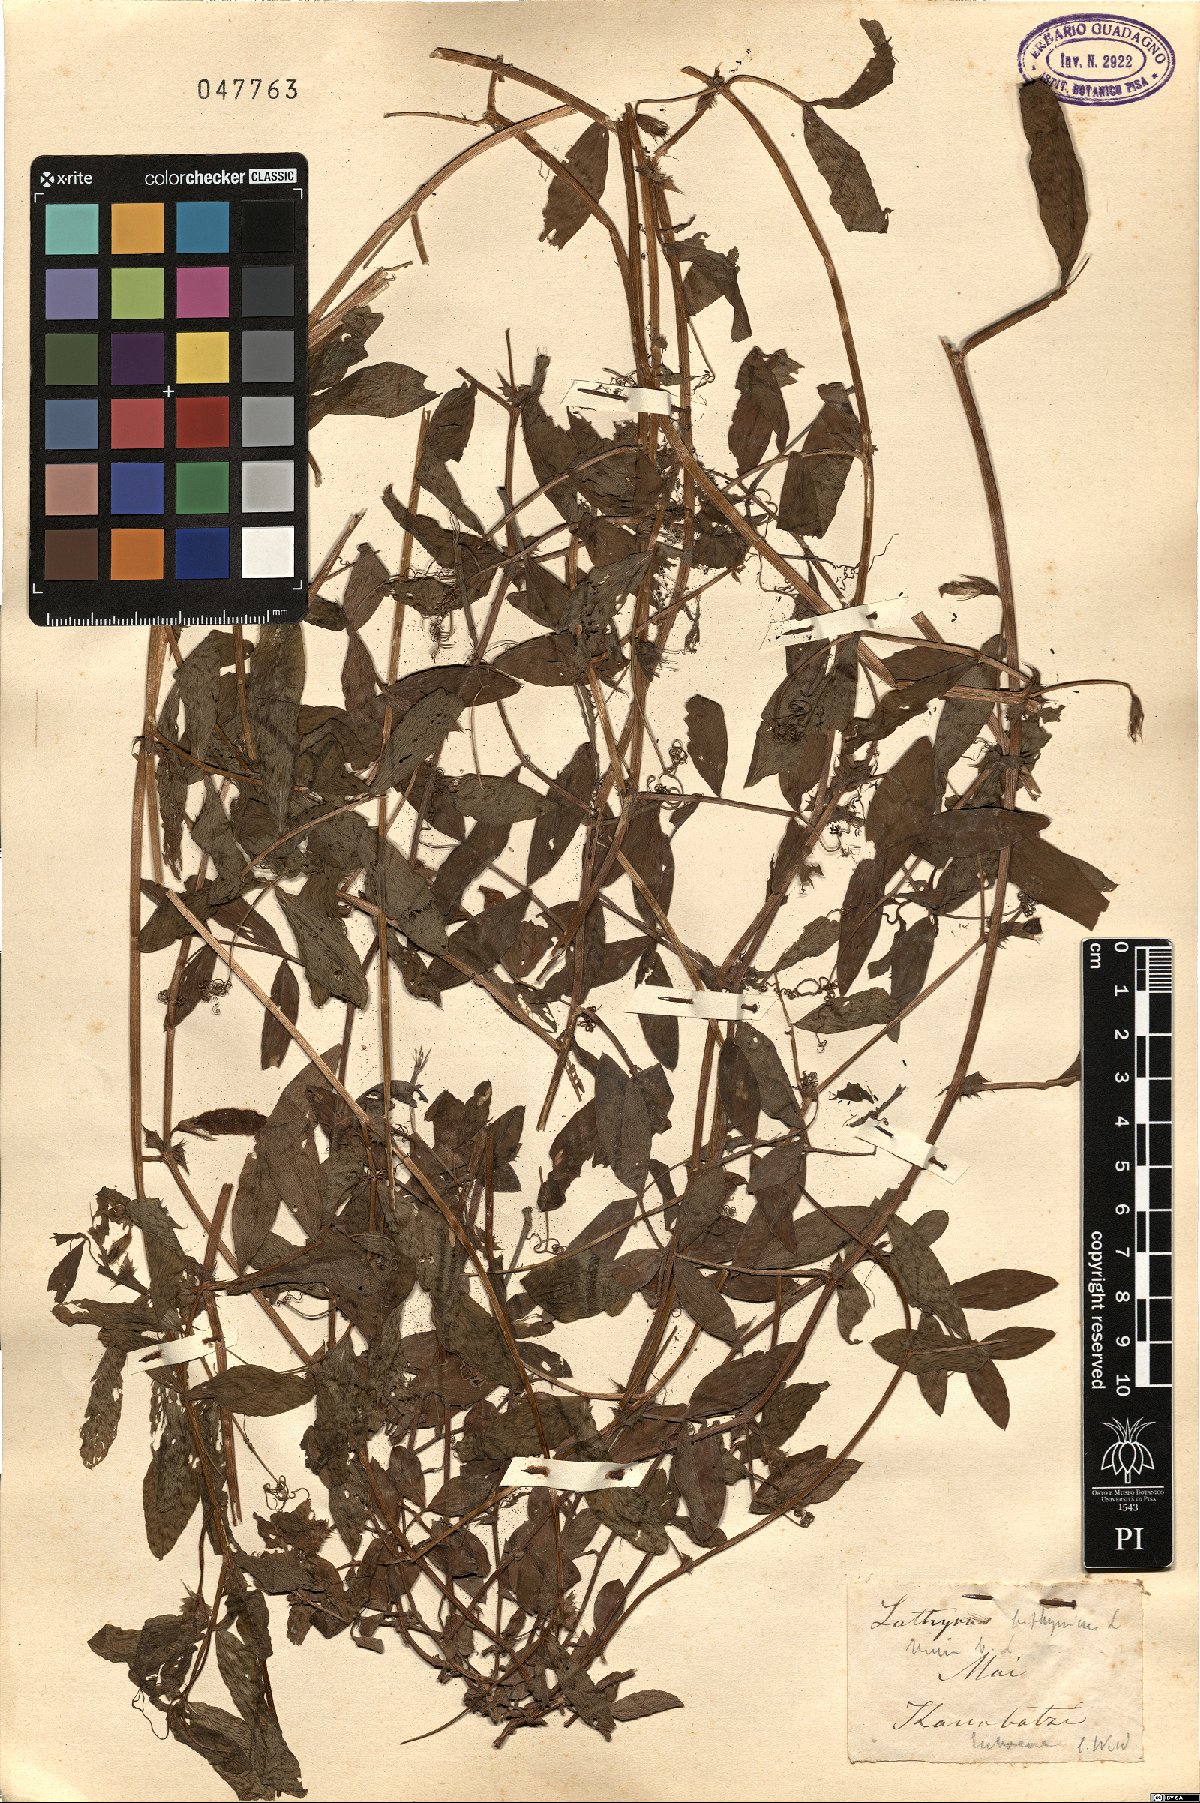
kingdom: Plantae
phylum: Tracheophyta
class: Magnoliopsida
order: Fabales
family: Fabaceae
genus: Vicia
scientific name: Vicia bithynica
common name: Bithynian vetch
